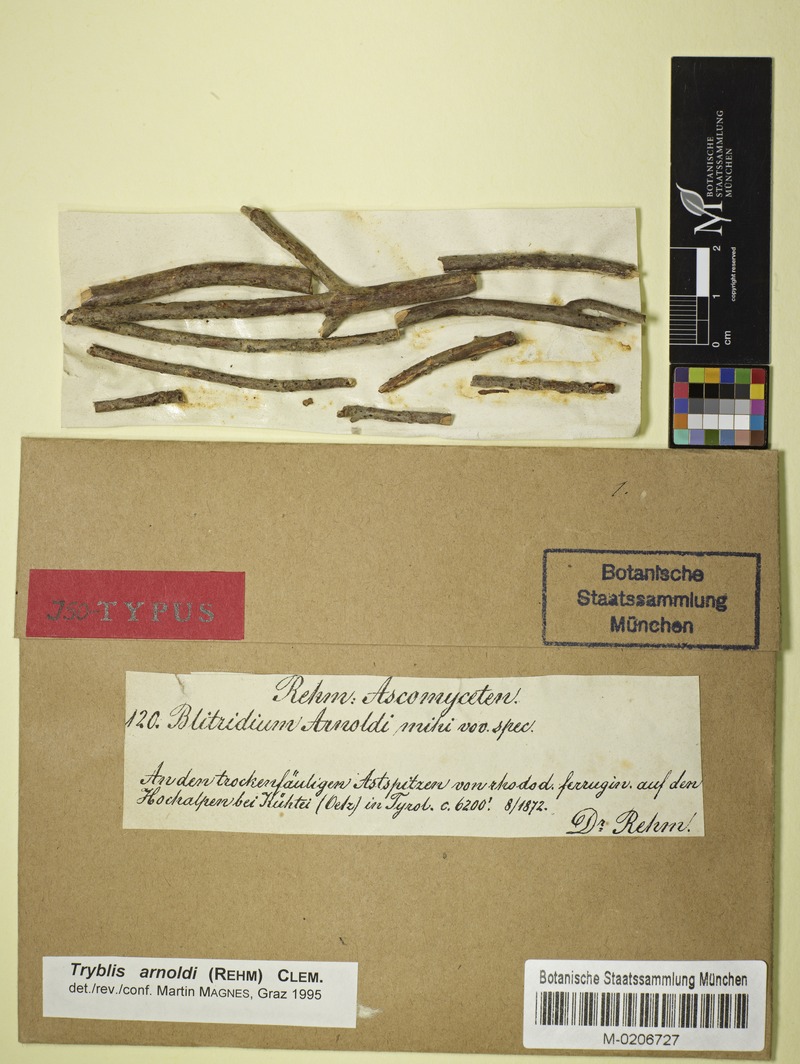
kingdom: Fungi
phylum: Ascomycota
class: Lecanoromycetes
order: Ostropales
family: Odontotremataceae
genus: Tryblis
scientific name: Tryblis arnoldii
